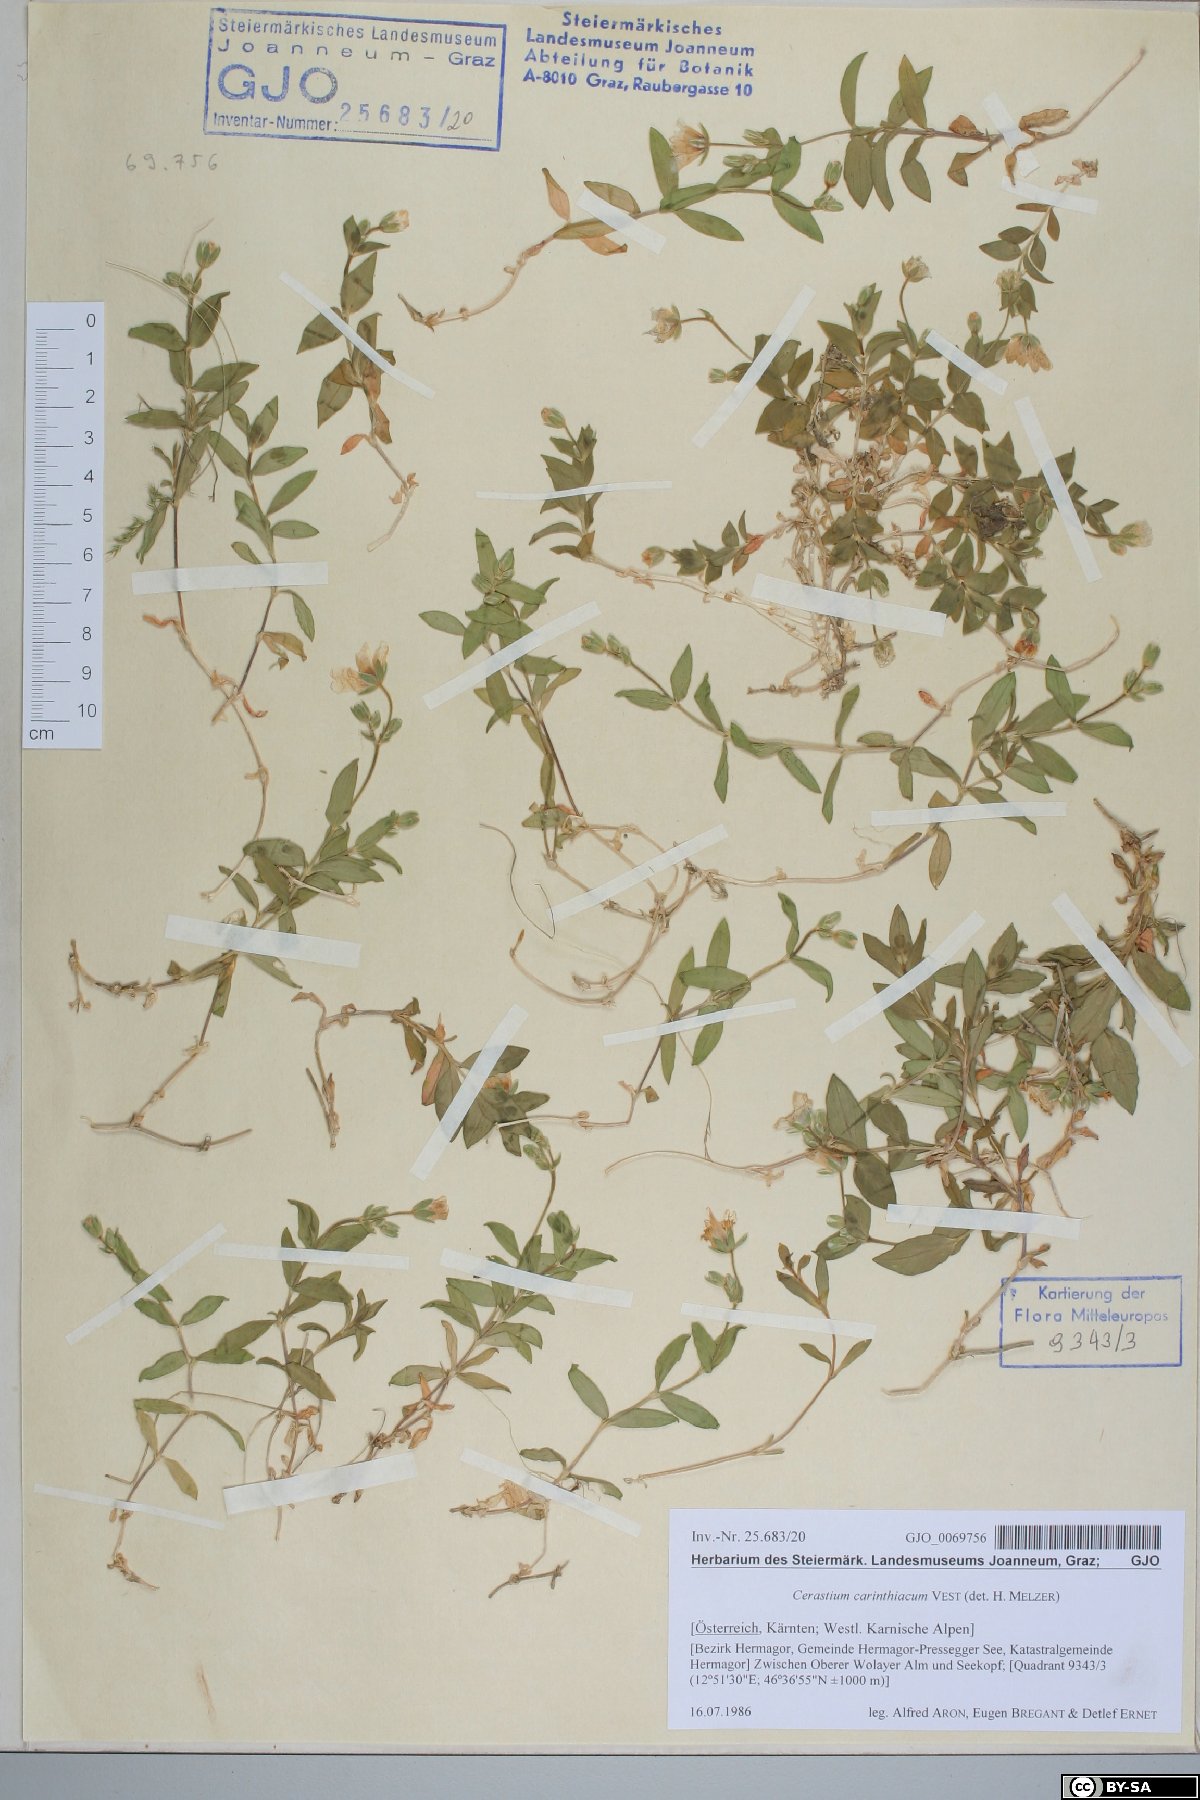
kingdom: Plantae
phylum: Tracheophyta
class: Magnoliopsida
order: Caryophyllales
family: Caryophyllaceae
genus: Cerastium
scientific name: Cerastium carinthiacum
